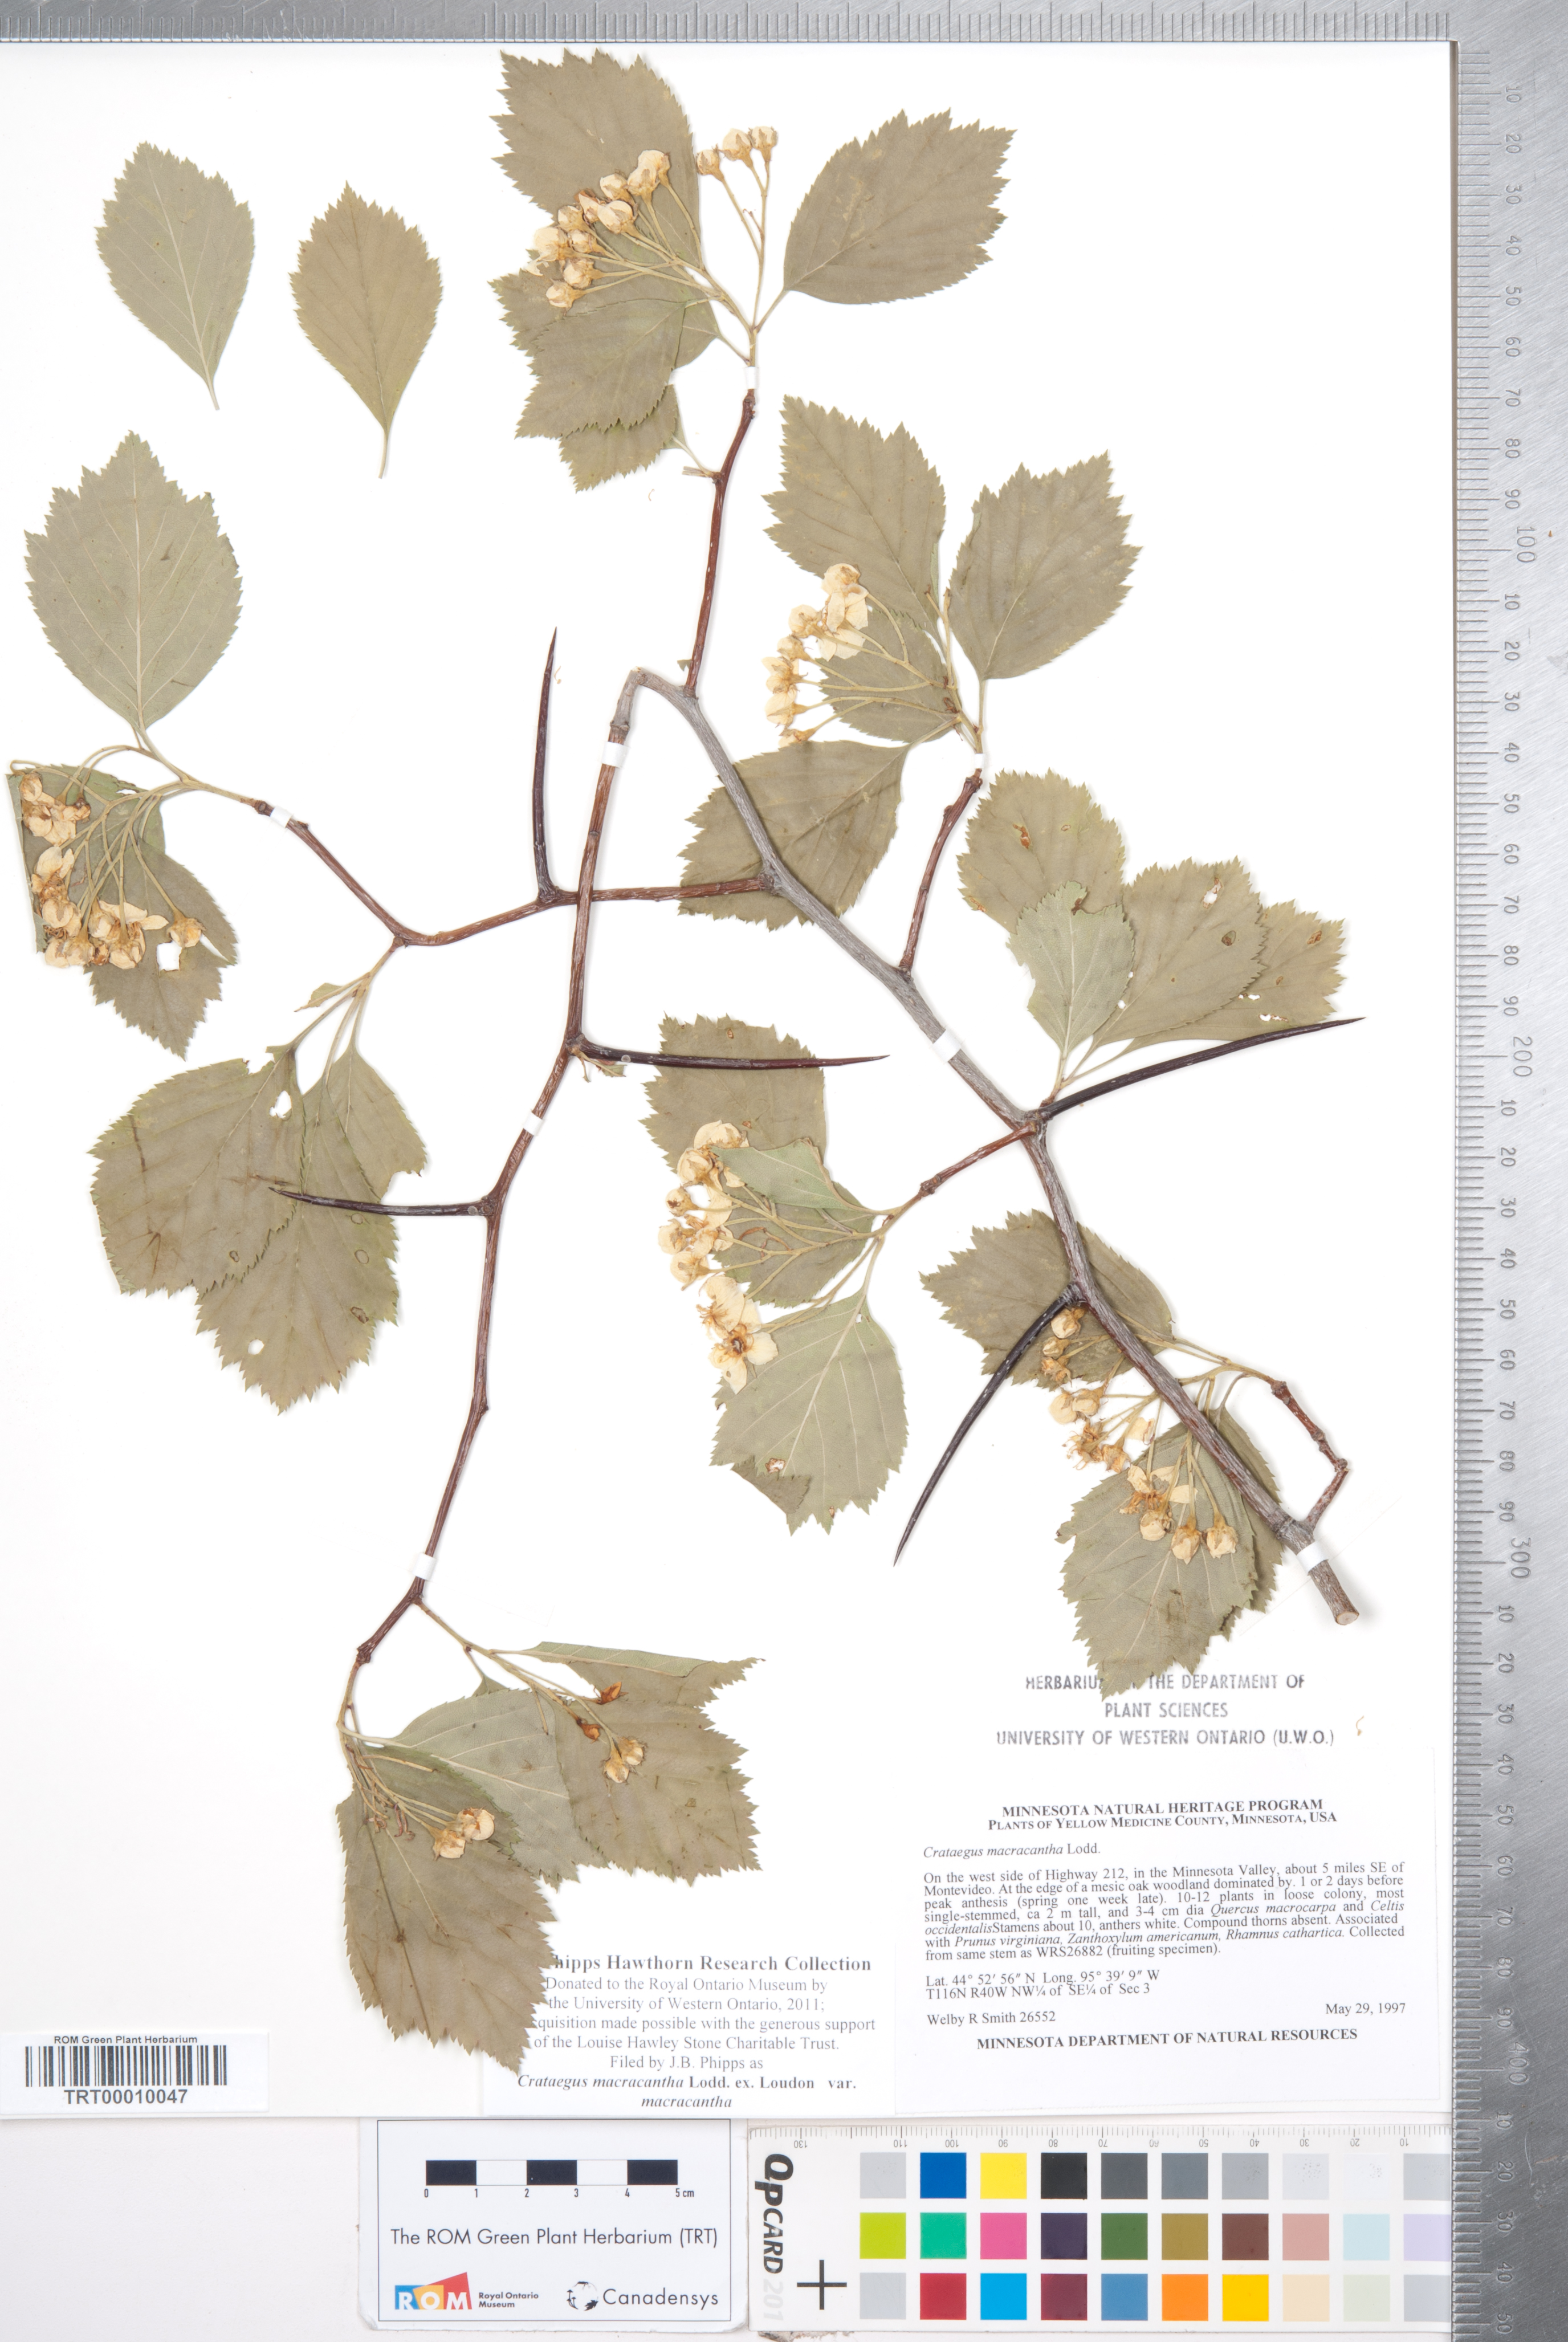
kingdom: Plantae
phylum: Tracheophyta
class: Magnoliopsida
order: Rosales
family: Rosaceae
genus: Crataegus
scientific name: Crataegus macracantha
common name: Large-thorn hawthorn
